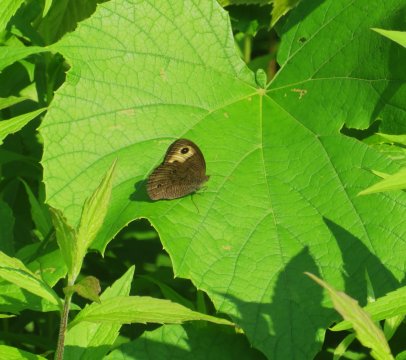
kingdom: Animalia
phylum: Arthropoda
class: Insecta
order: Lepidoptera
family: Nymphalidae
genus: Cercyonis
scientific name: Cercyonis pegala
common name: Common Wood-Nymph
